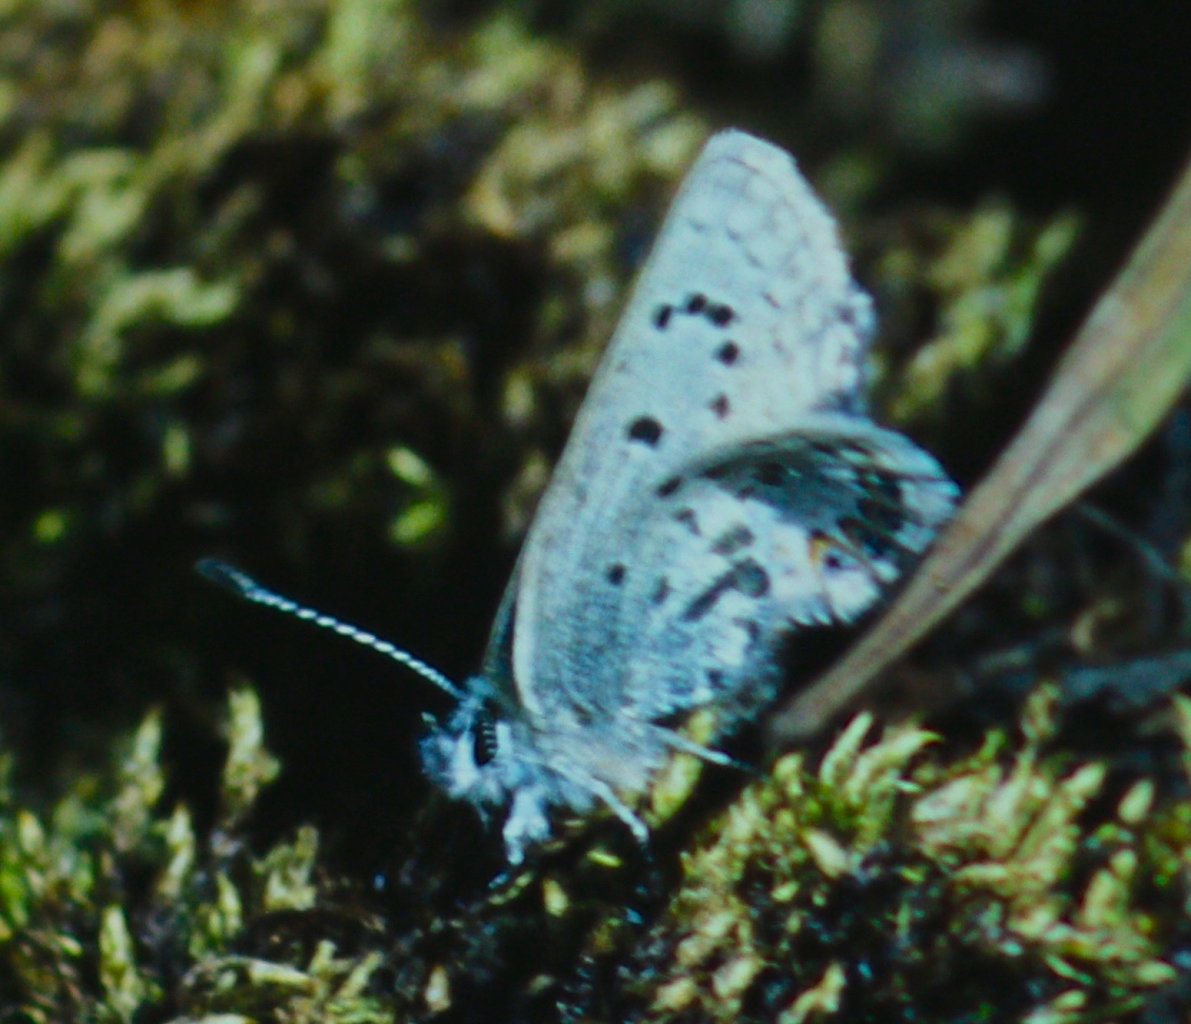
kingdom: Animalia
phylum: Arthropoda
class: Insecta
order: Lepidoptera
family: Lycaenidae
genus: Plebejus
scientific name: Plebejus shasta
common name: Shasta Blue
